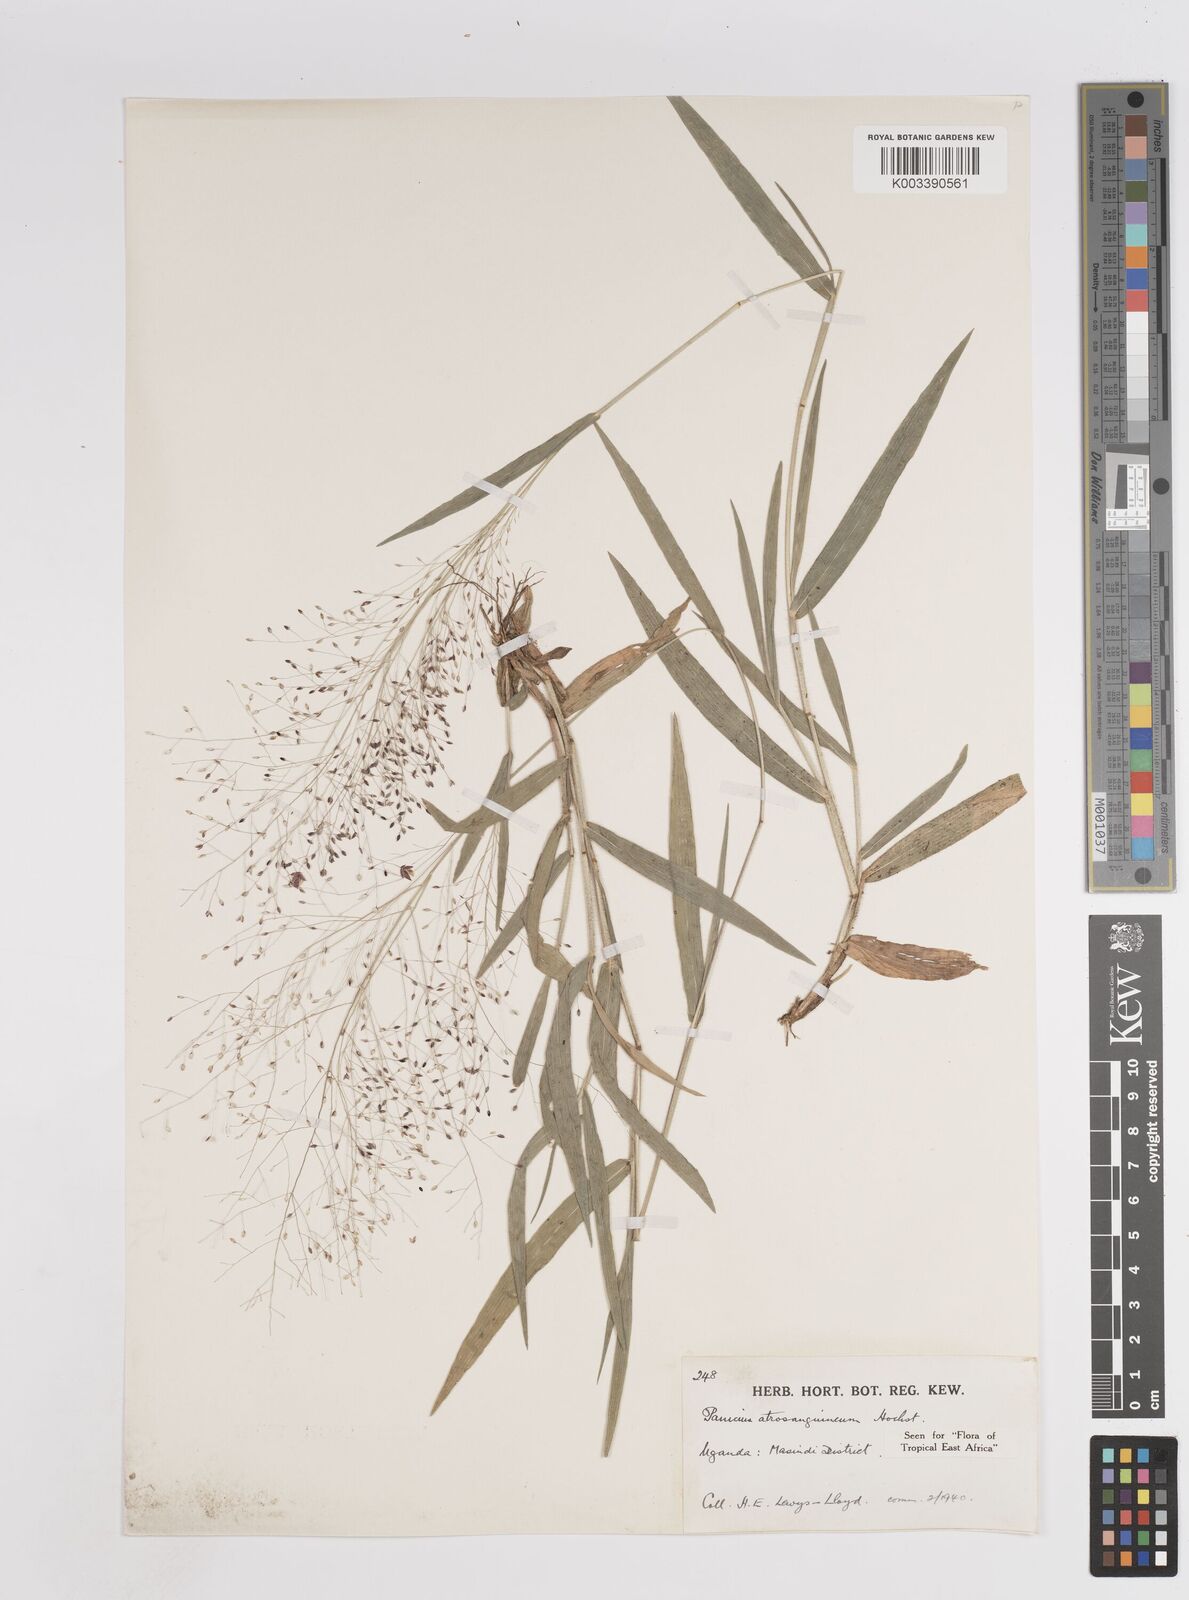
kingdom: Plantae
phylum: Tracheophyta
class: Liliopsida
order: Poales
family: Poaceae
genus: Panicum
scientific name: Panicum atrosanguineum
